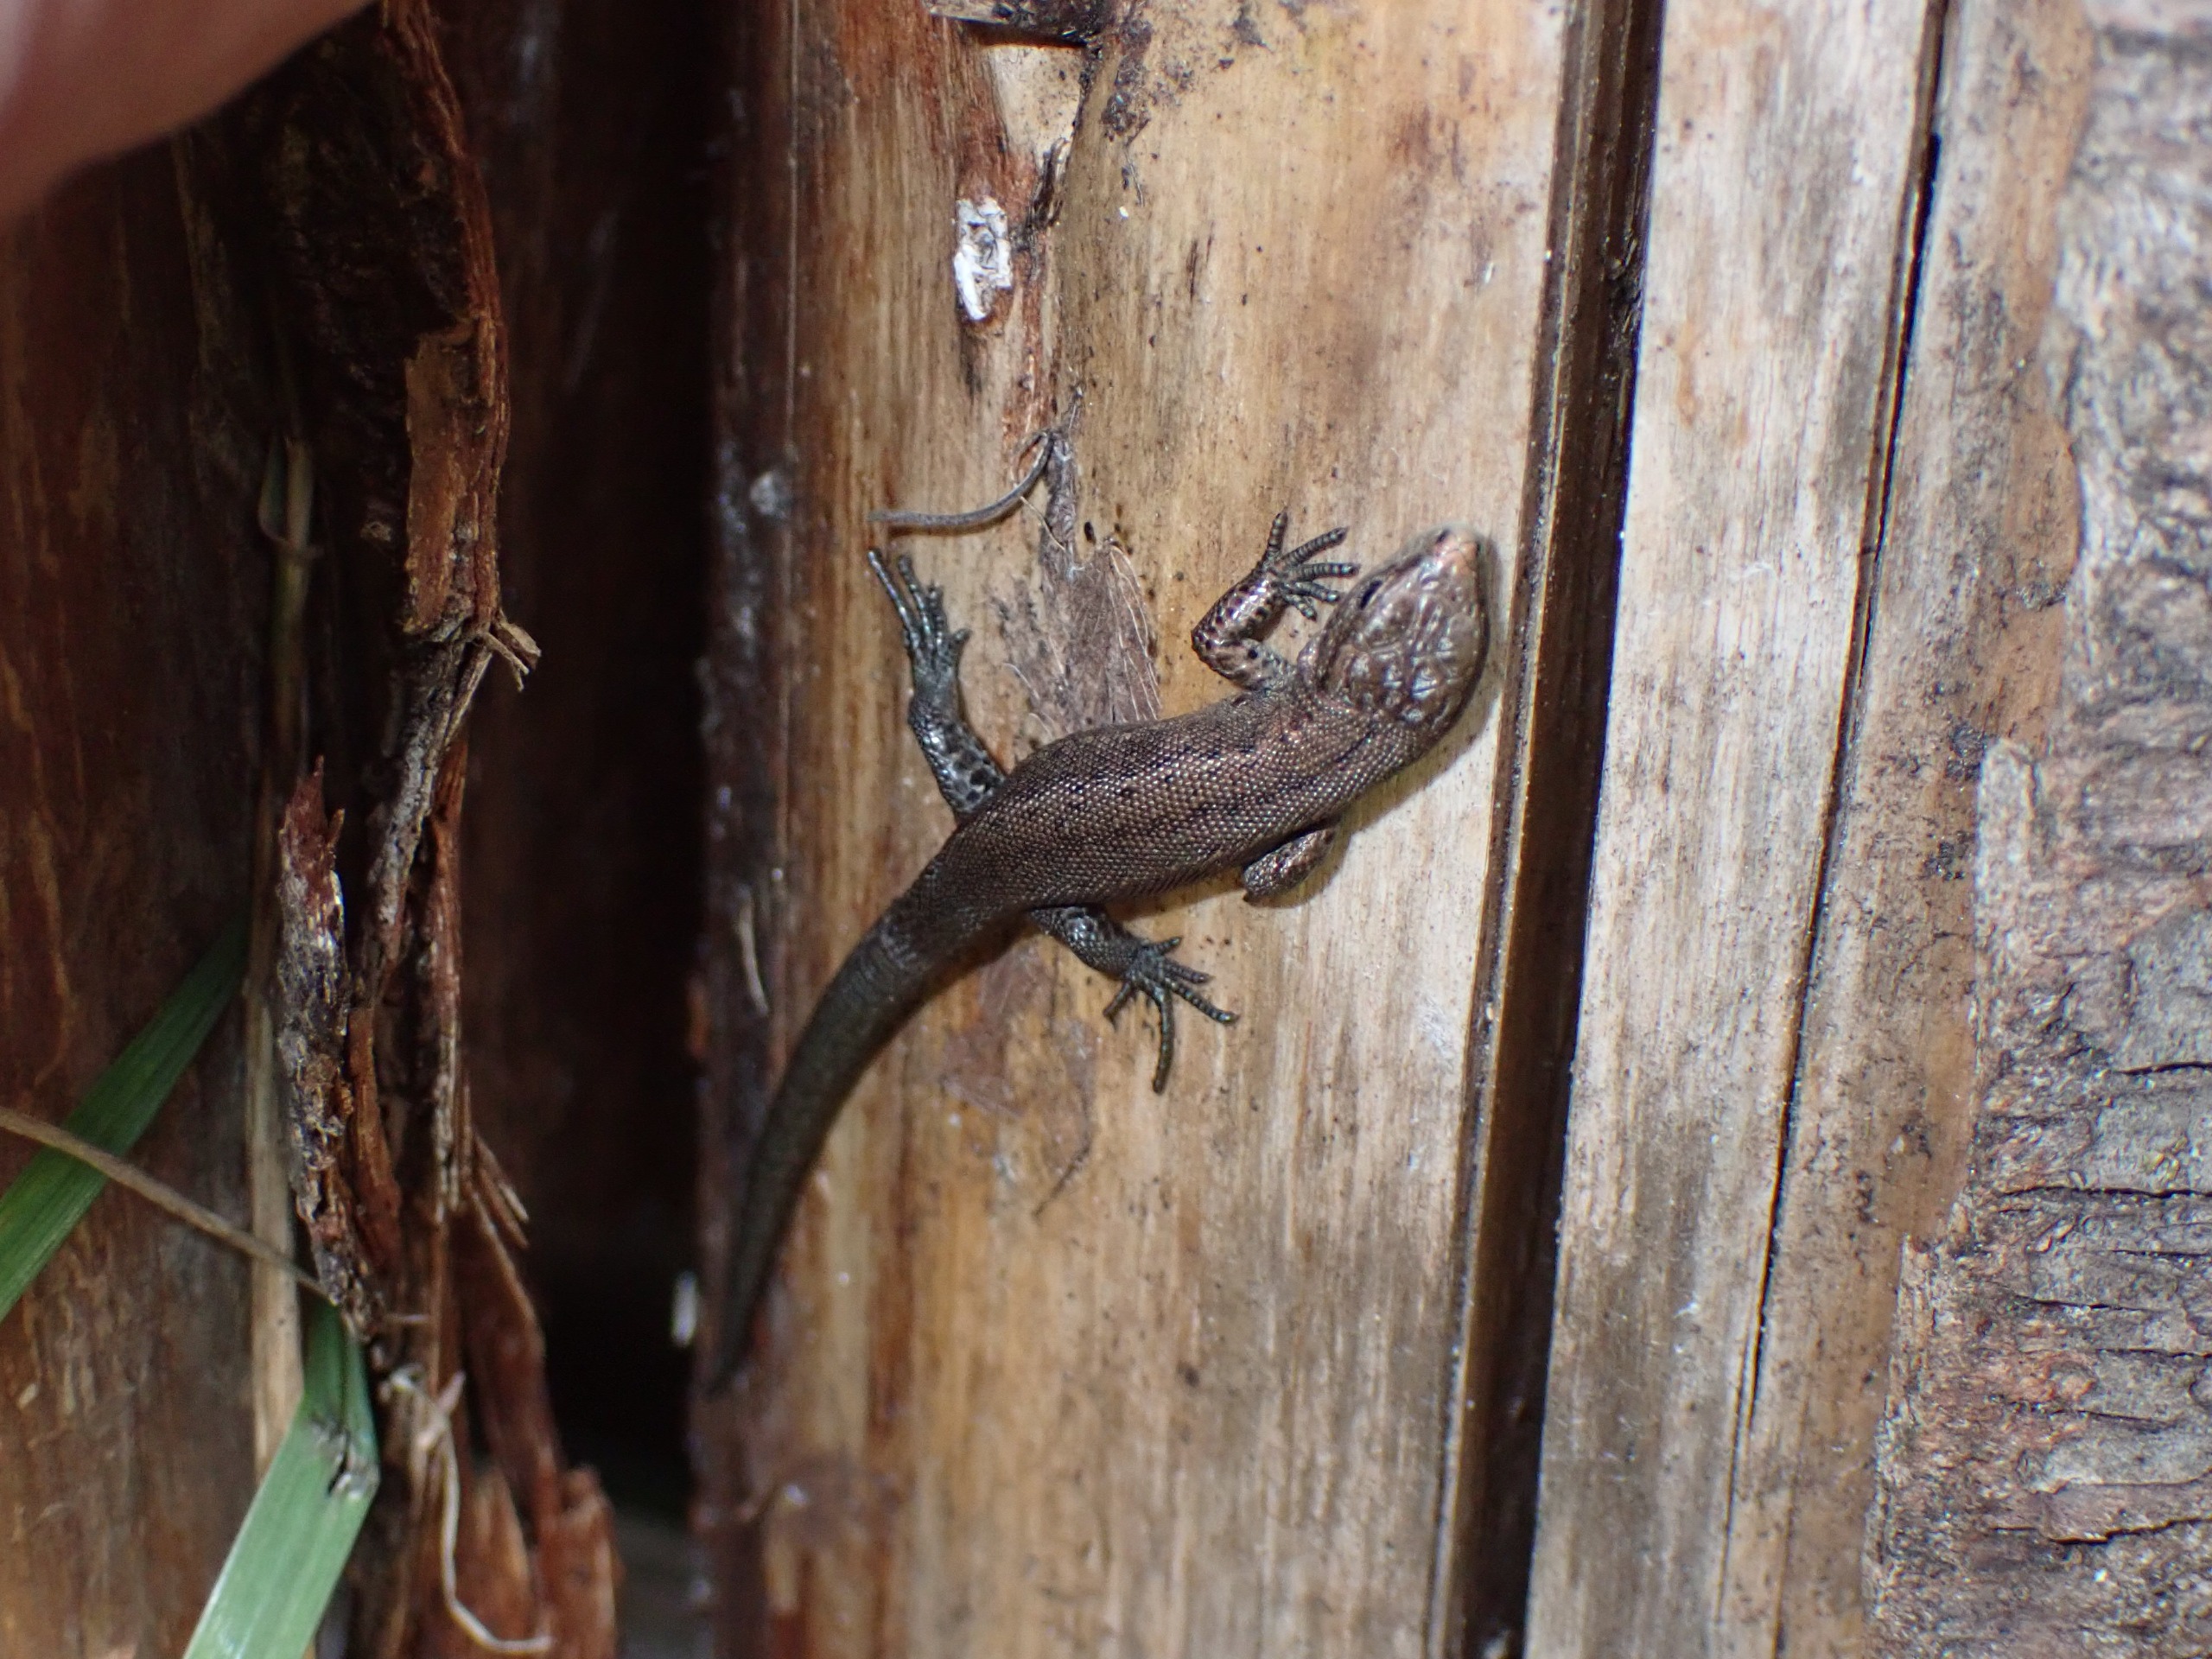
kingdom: Animalia
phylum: Chordata
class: Squamata
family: Lacertidae
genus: Zootoca
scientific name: Zootoca vivipara
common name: Skovfirben
